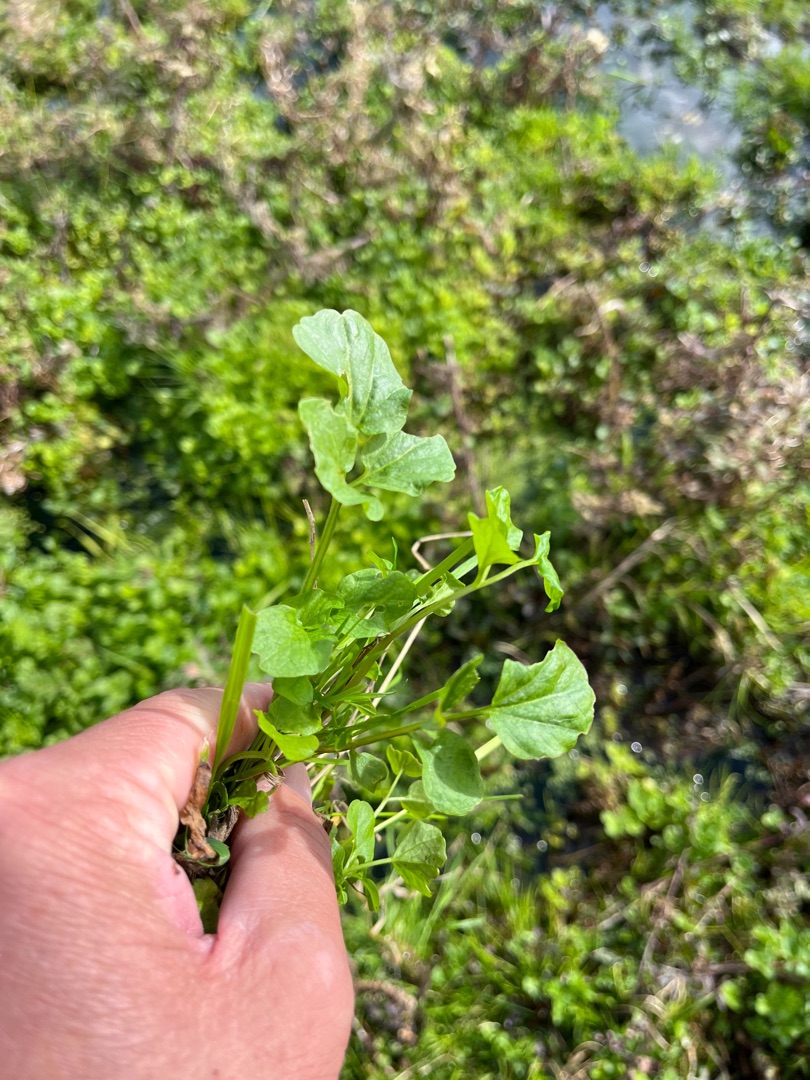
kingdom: Plantae
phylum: Tracheophyta
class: Magnoliopsida
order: Brassicales
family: Brassicaceae
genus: Nasturtium
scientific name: Nasturtium
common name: Brøndkarseslægten
